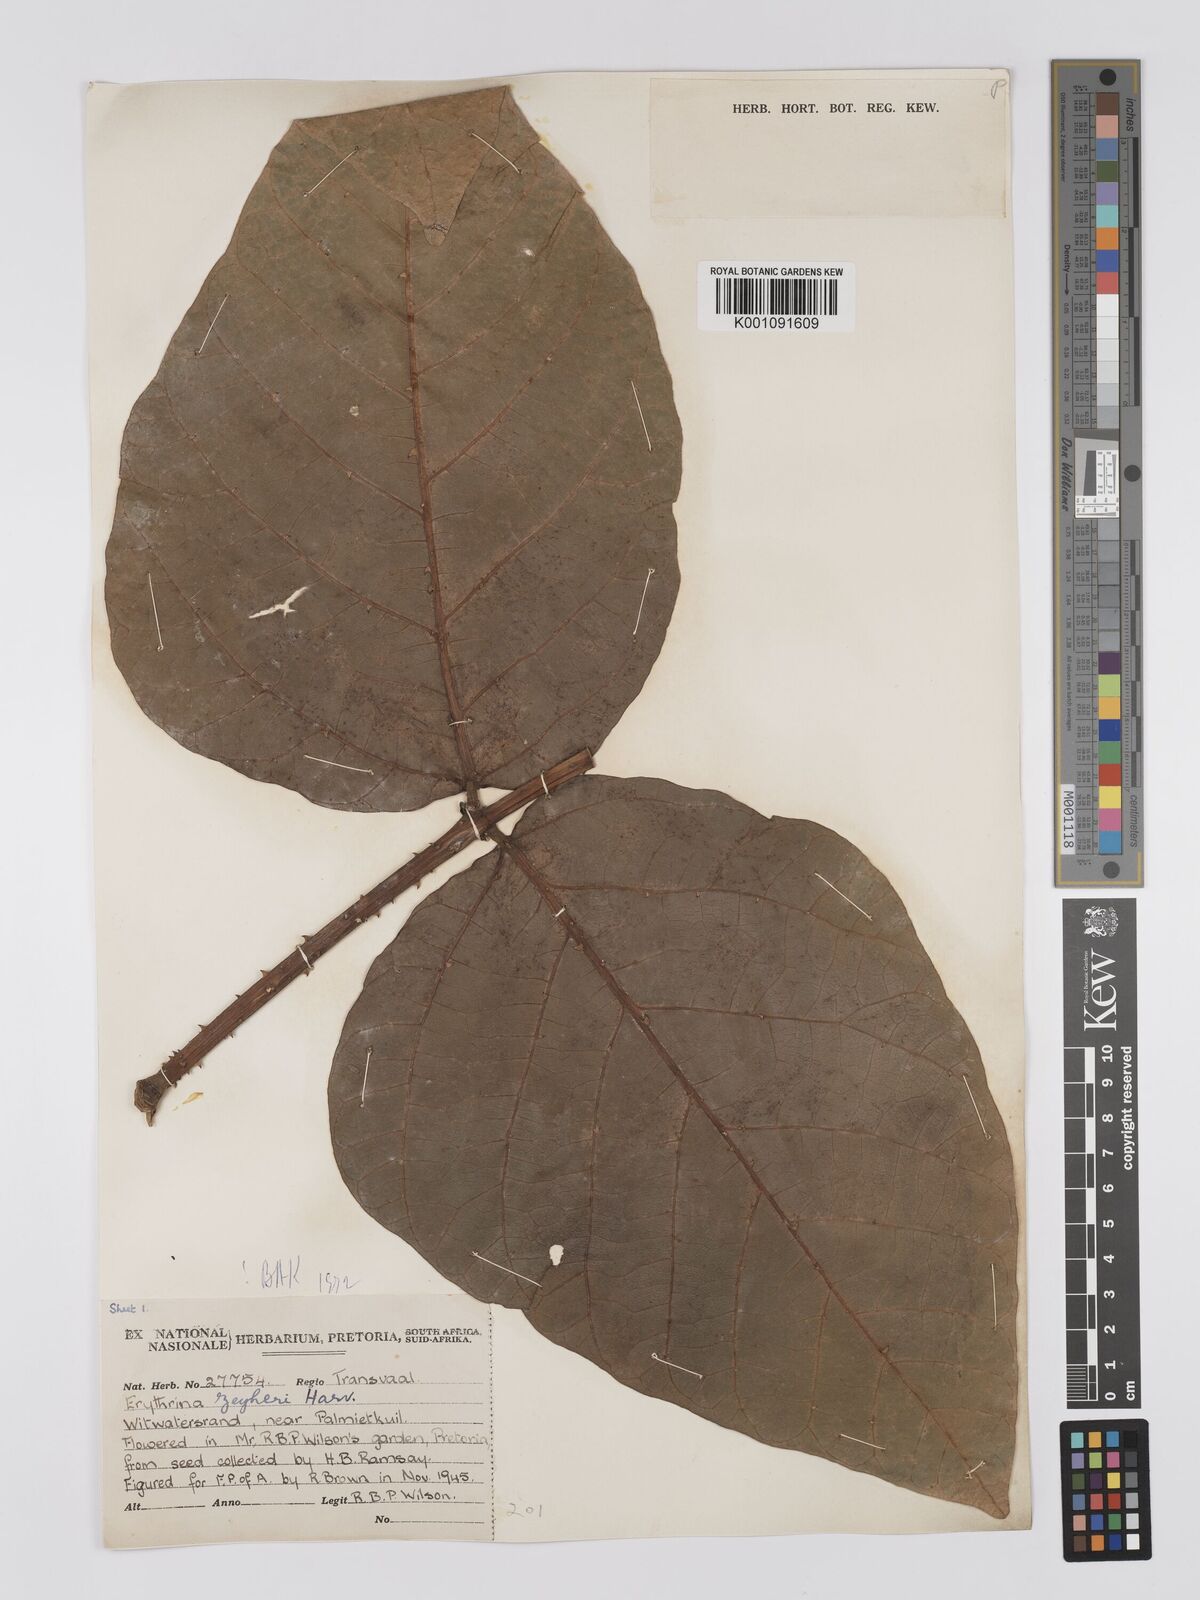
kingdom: Plantae
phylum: Tracheophyta
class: Magnoliopsida
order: Fabales
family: Fabaceae
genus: Erythrina
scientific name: Erythrina zeyheri
